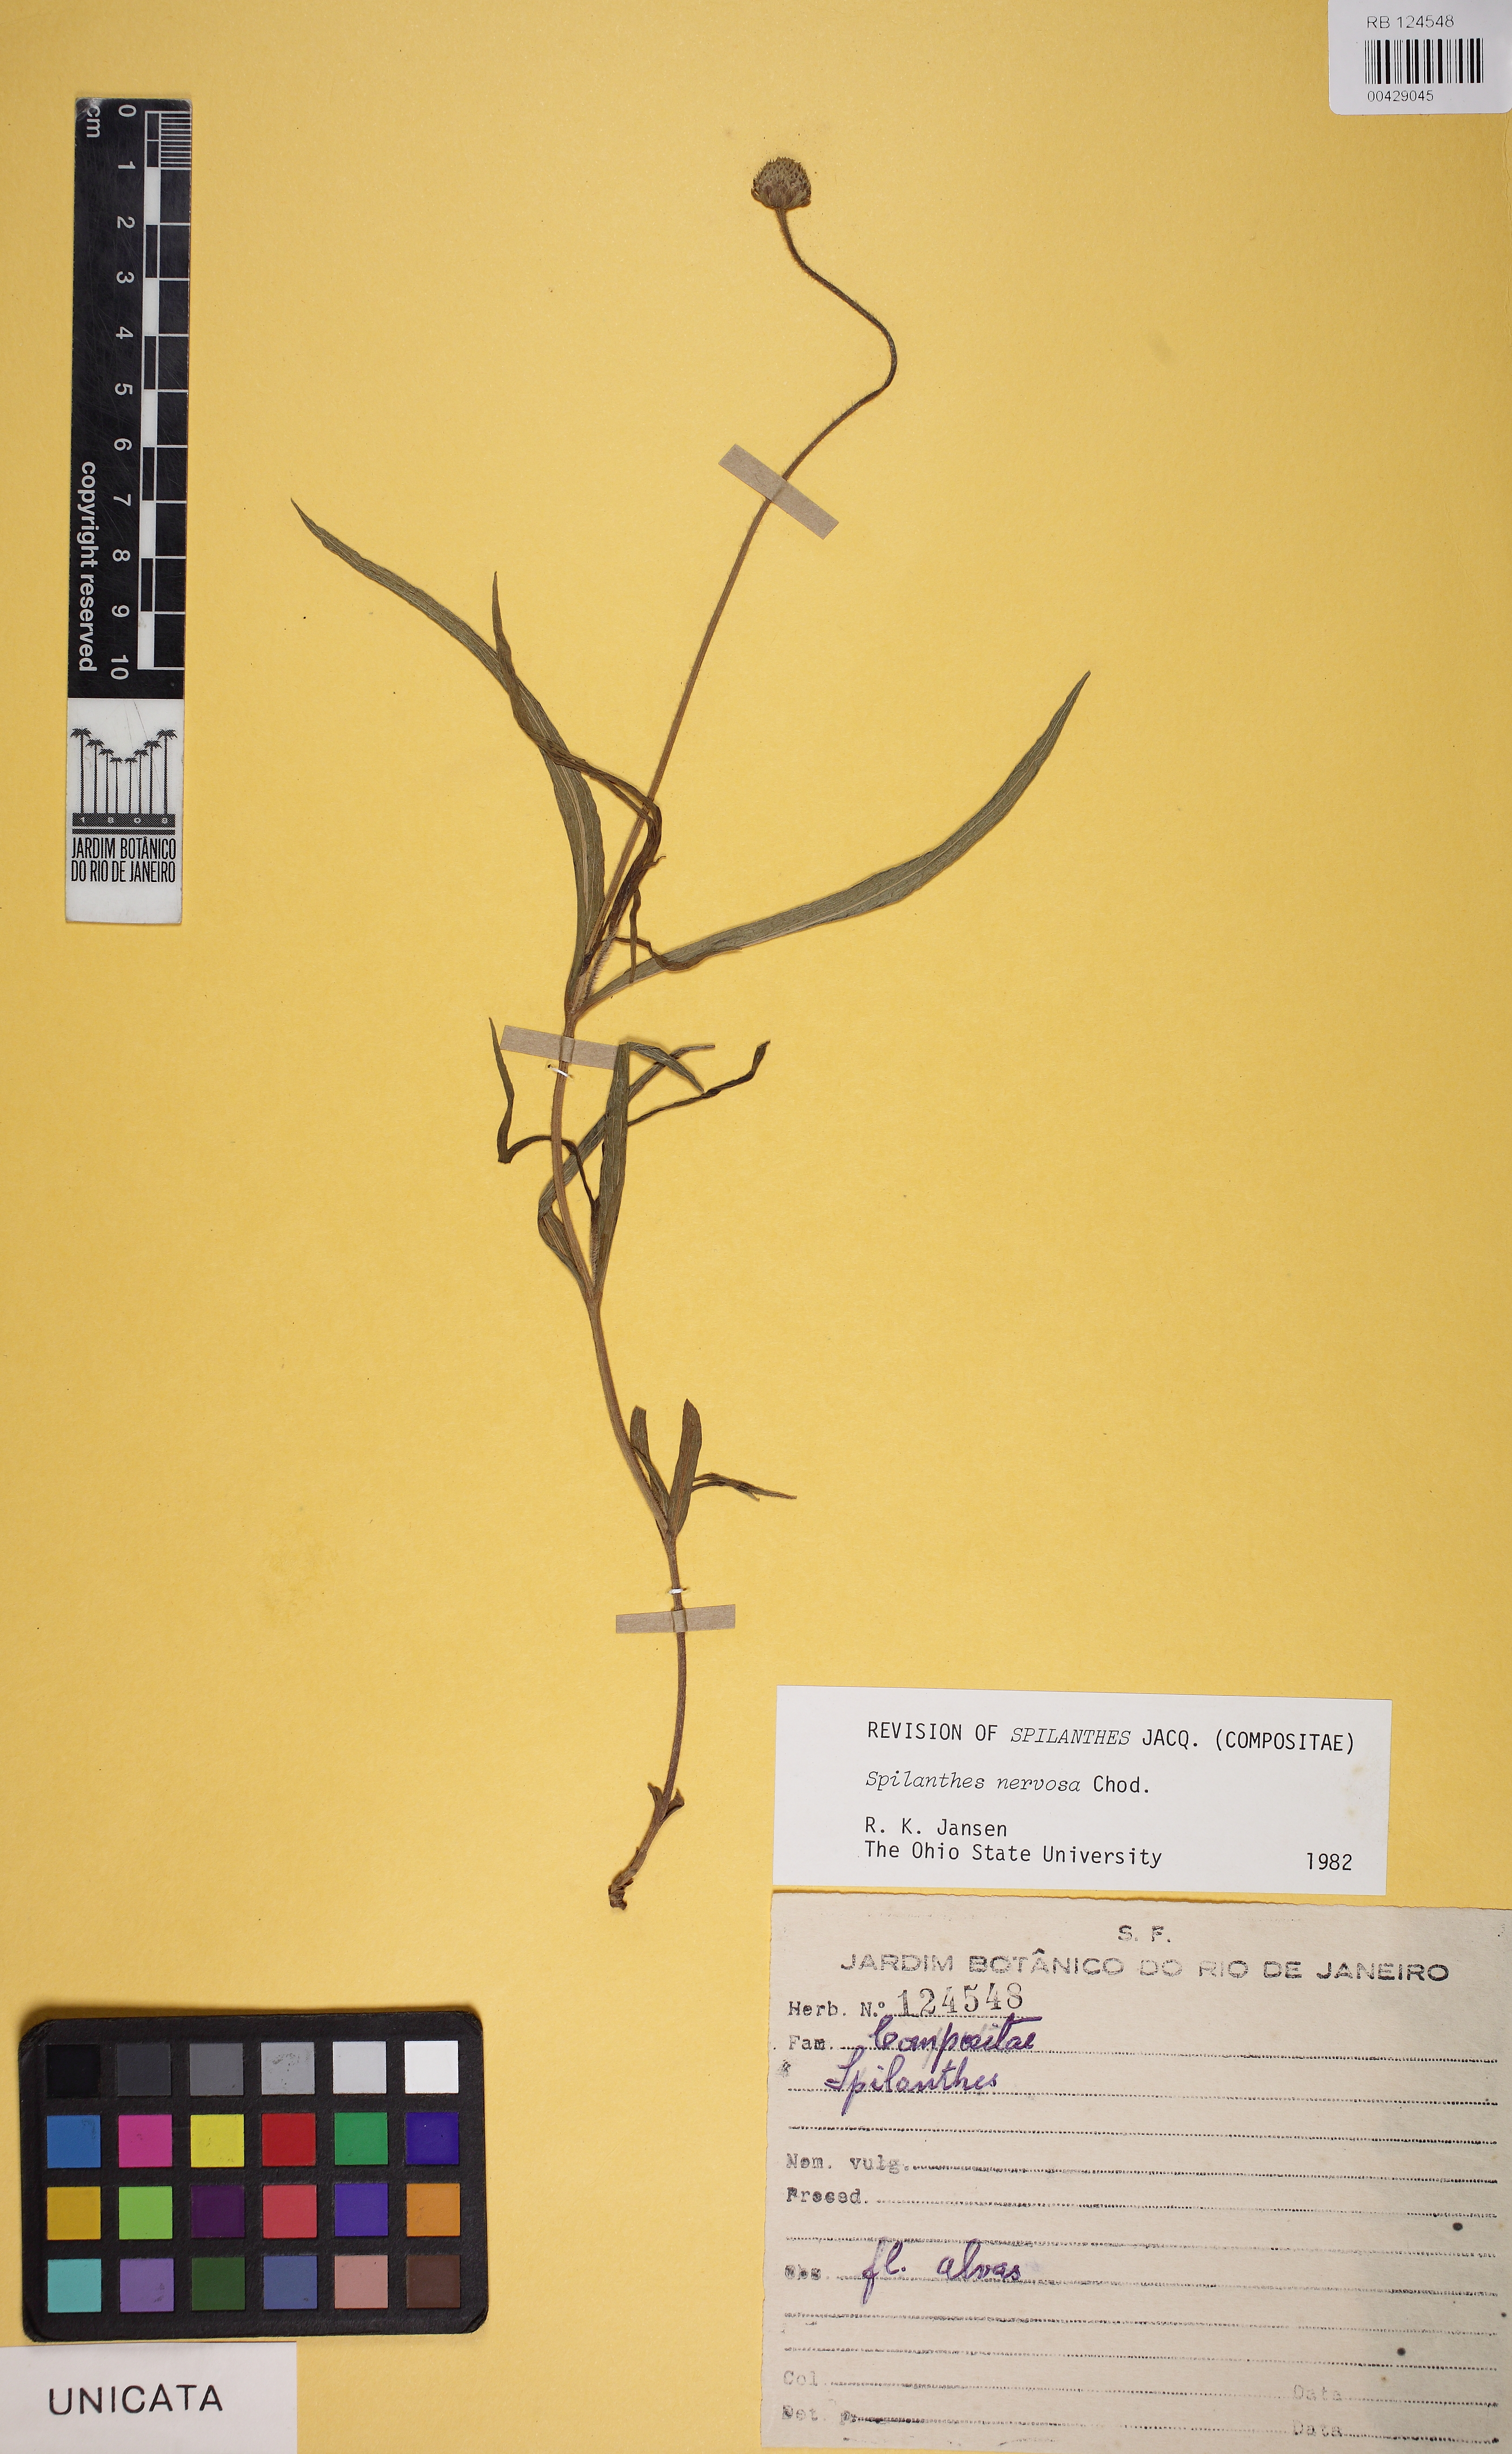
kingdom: Plantae
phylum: Tracheophyta
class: Magnoliopsida
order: Asterales
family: Asteraceae
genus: Spilanthes
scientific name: Spilanthes nervosa
